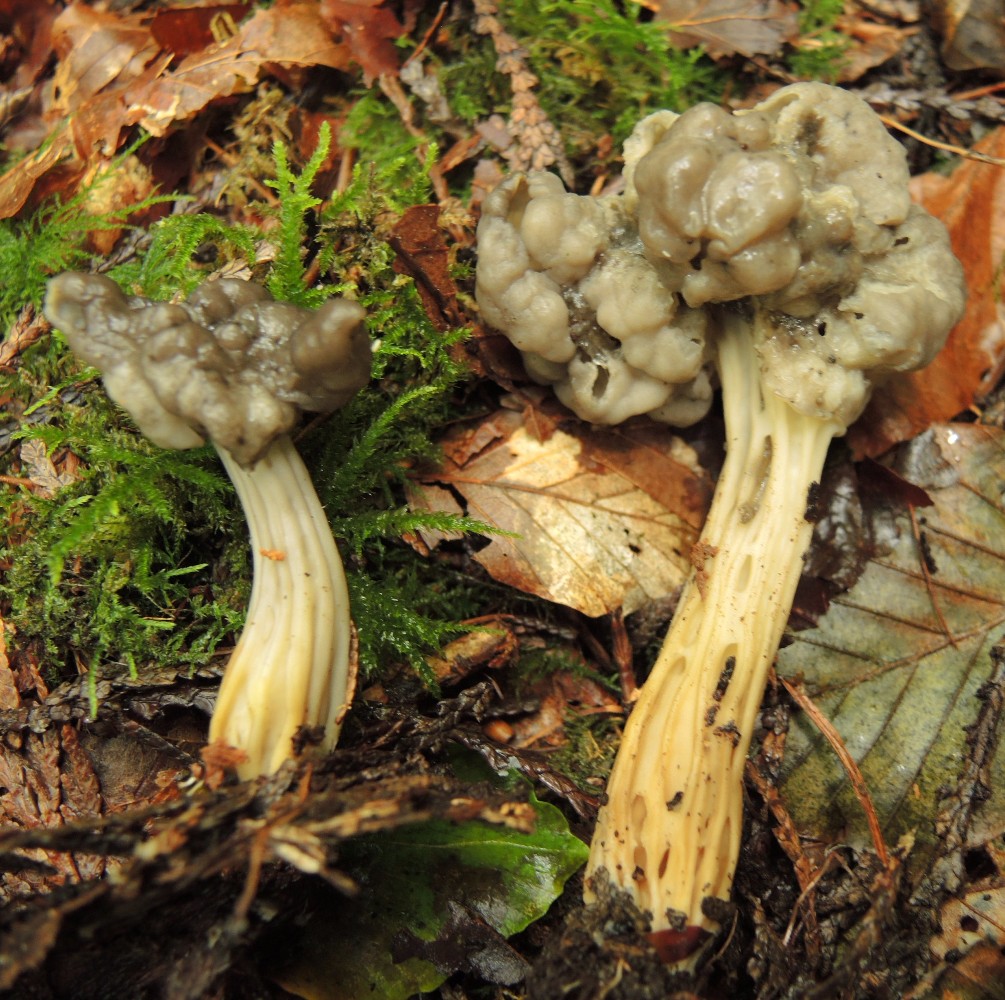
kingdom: Fungi
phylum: Ascomycota
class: Pezizomycetes
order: Pezizales
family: Helvellaceae
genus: Helvella
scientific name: Helvella lacunosa
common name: grubet foldhat
